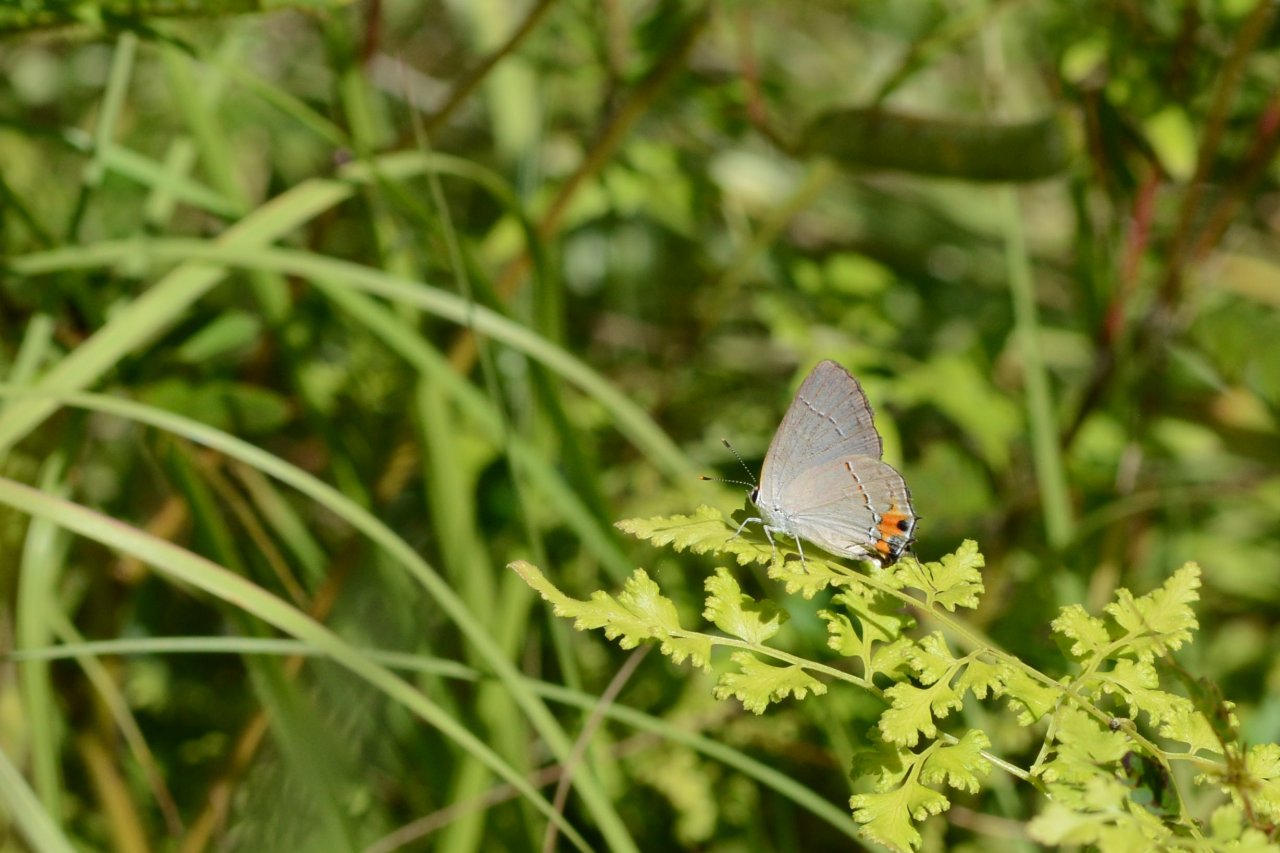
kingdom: Animalia
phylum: Arthropoda
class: Insecta
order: Lepidoptera
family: Lycaenidae
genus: Strymon
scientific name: Strymon melinus
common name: Gray Hairstreak
